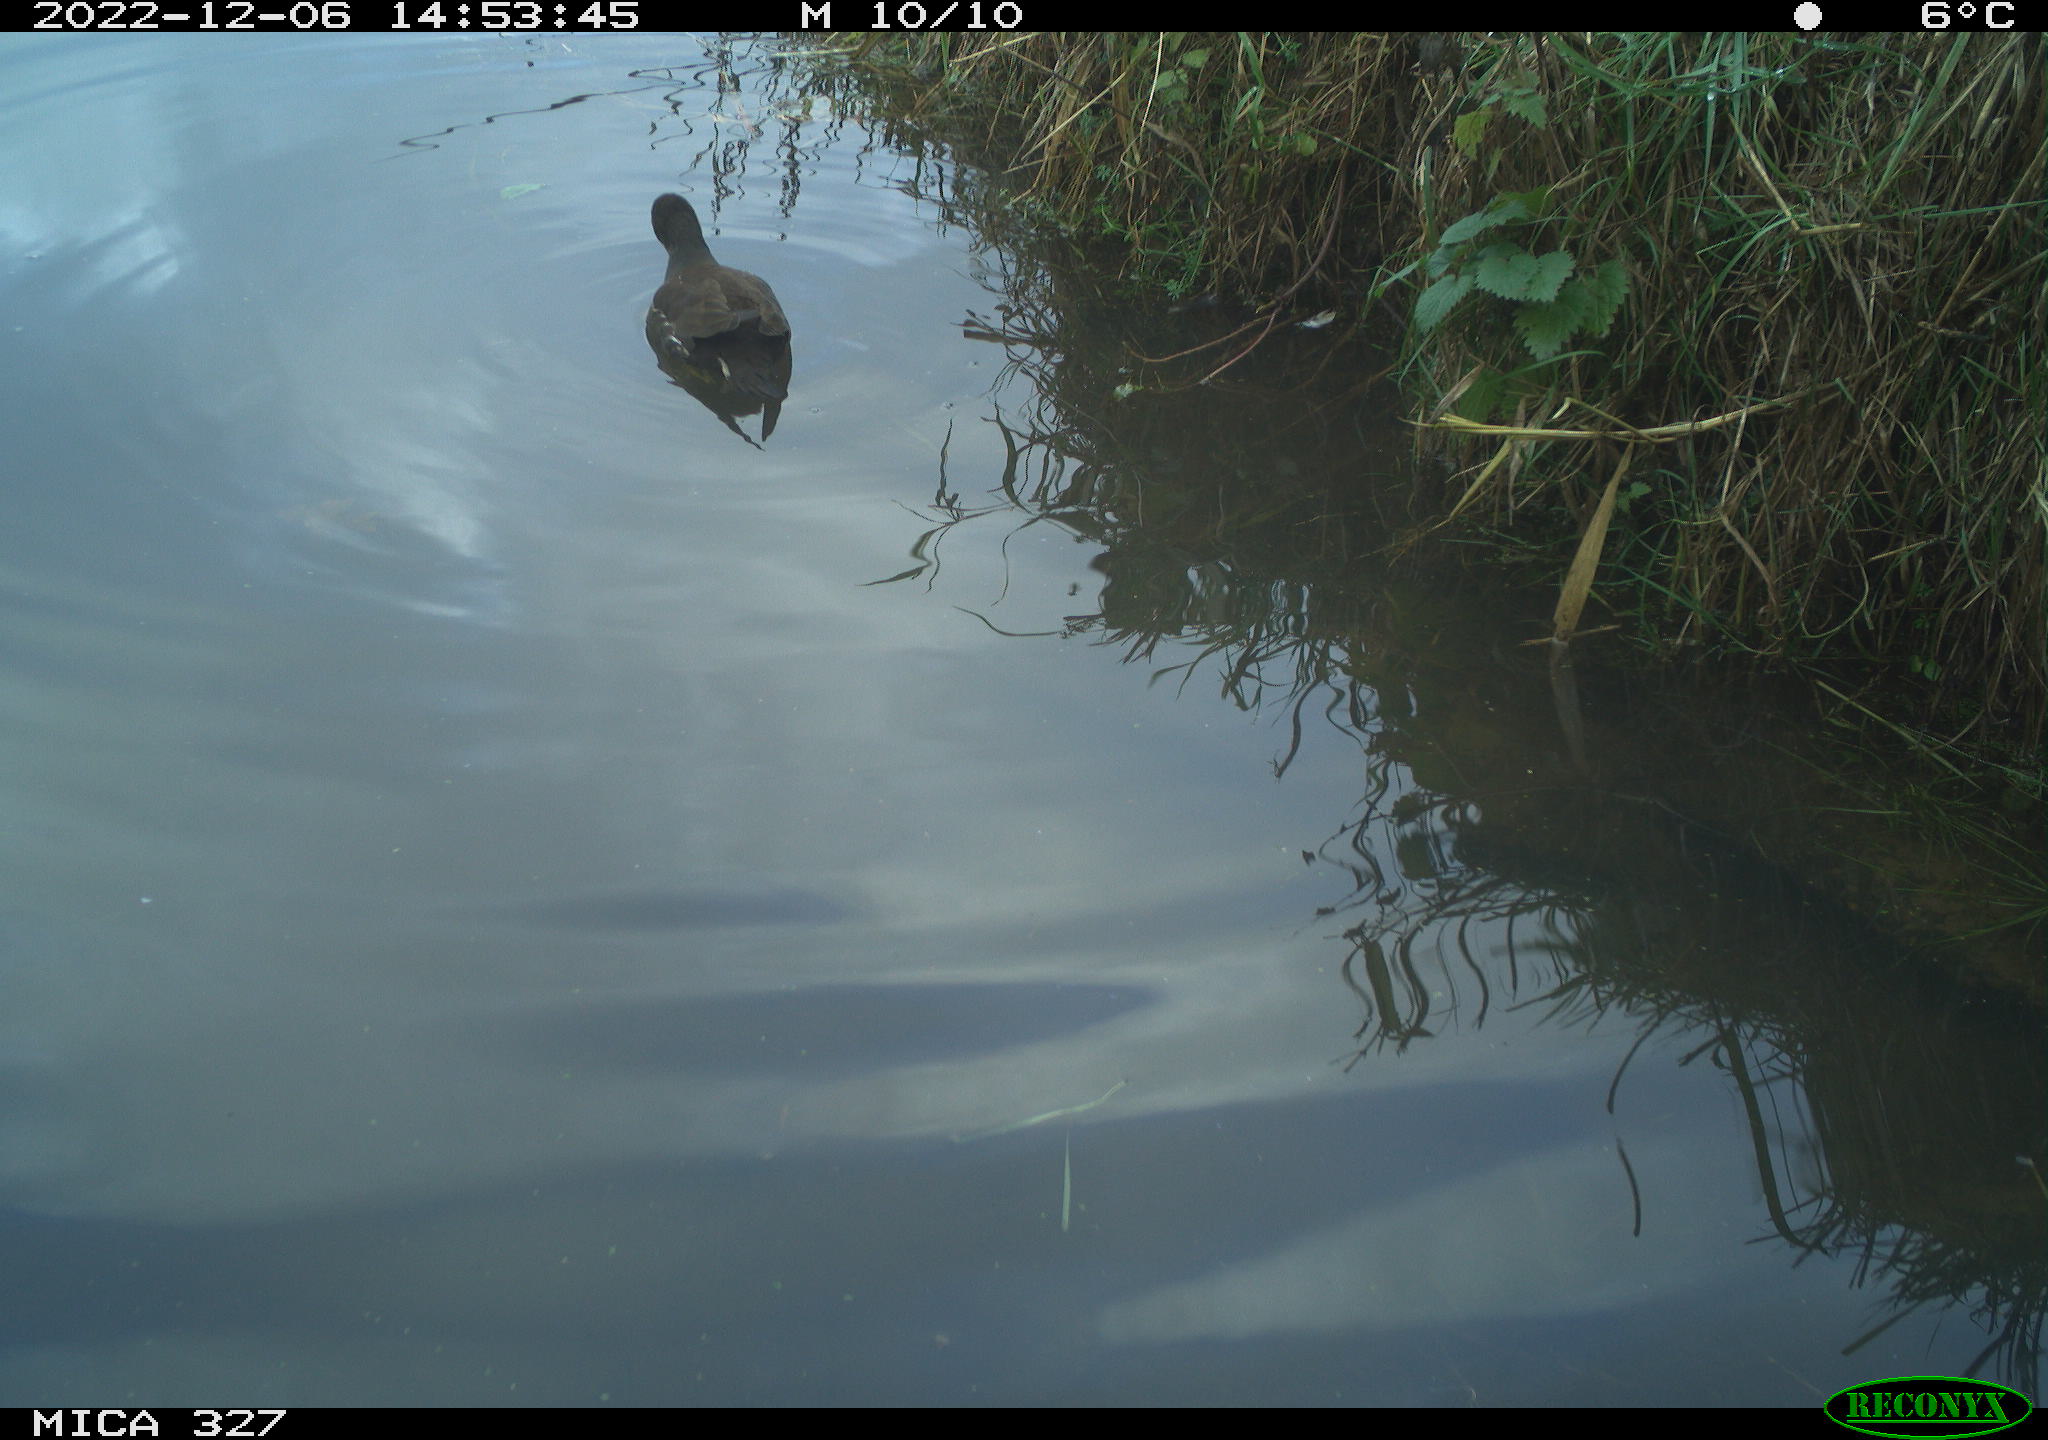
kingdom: Animalia
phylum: Chordata
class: Aves
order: Gruiformes
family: Rallidae
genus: Gallinula
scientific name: Gallinula chloropus
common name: Common moorhen
